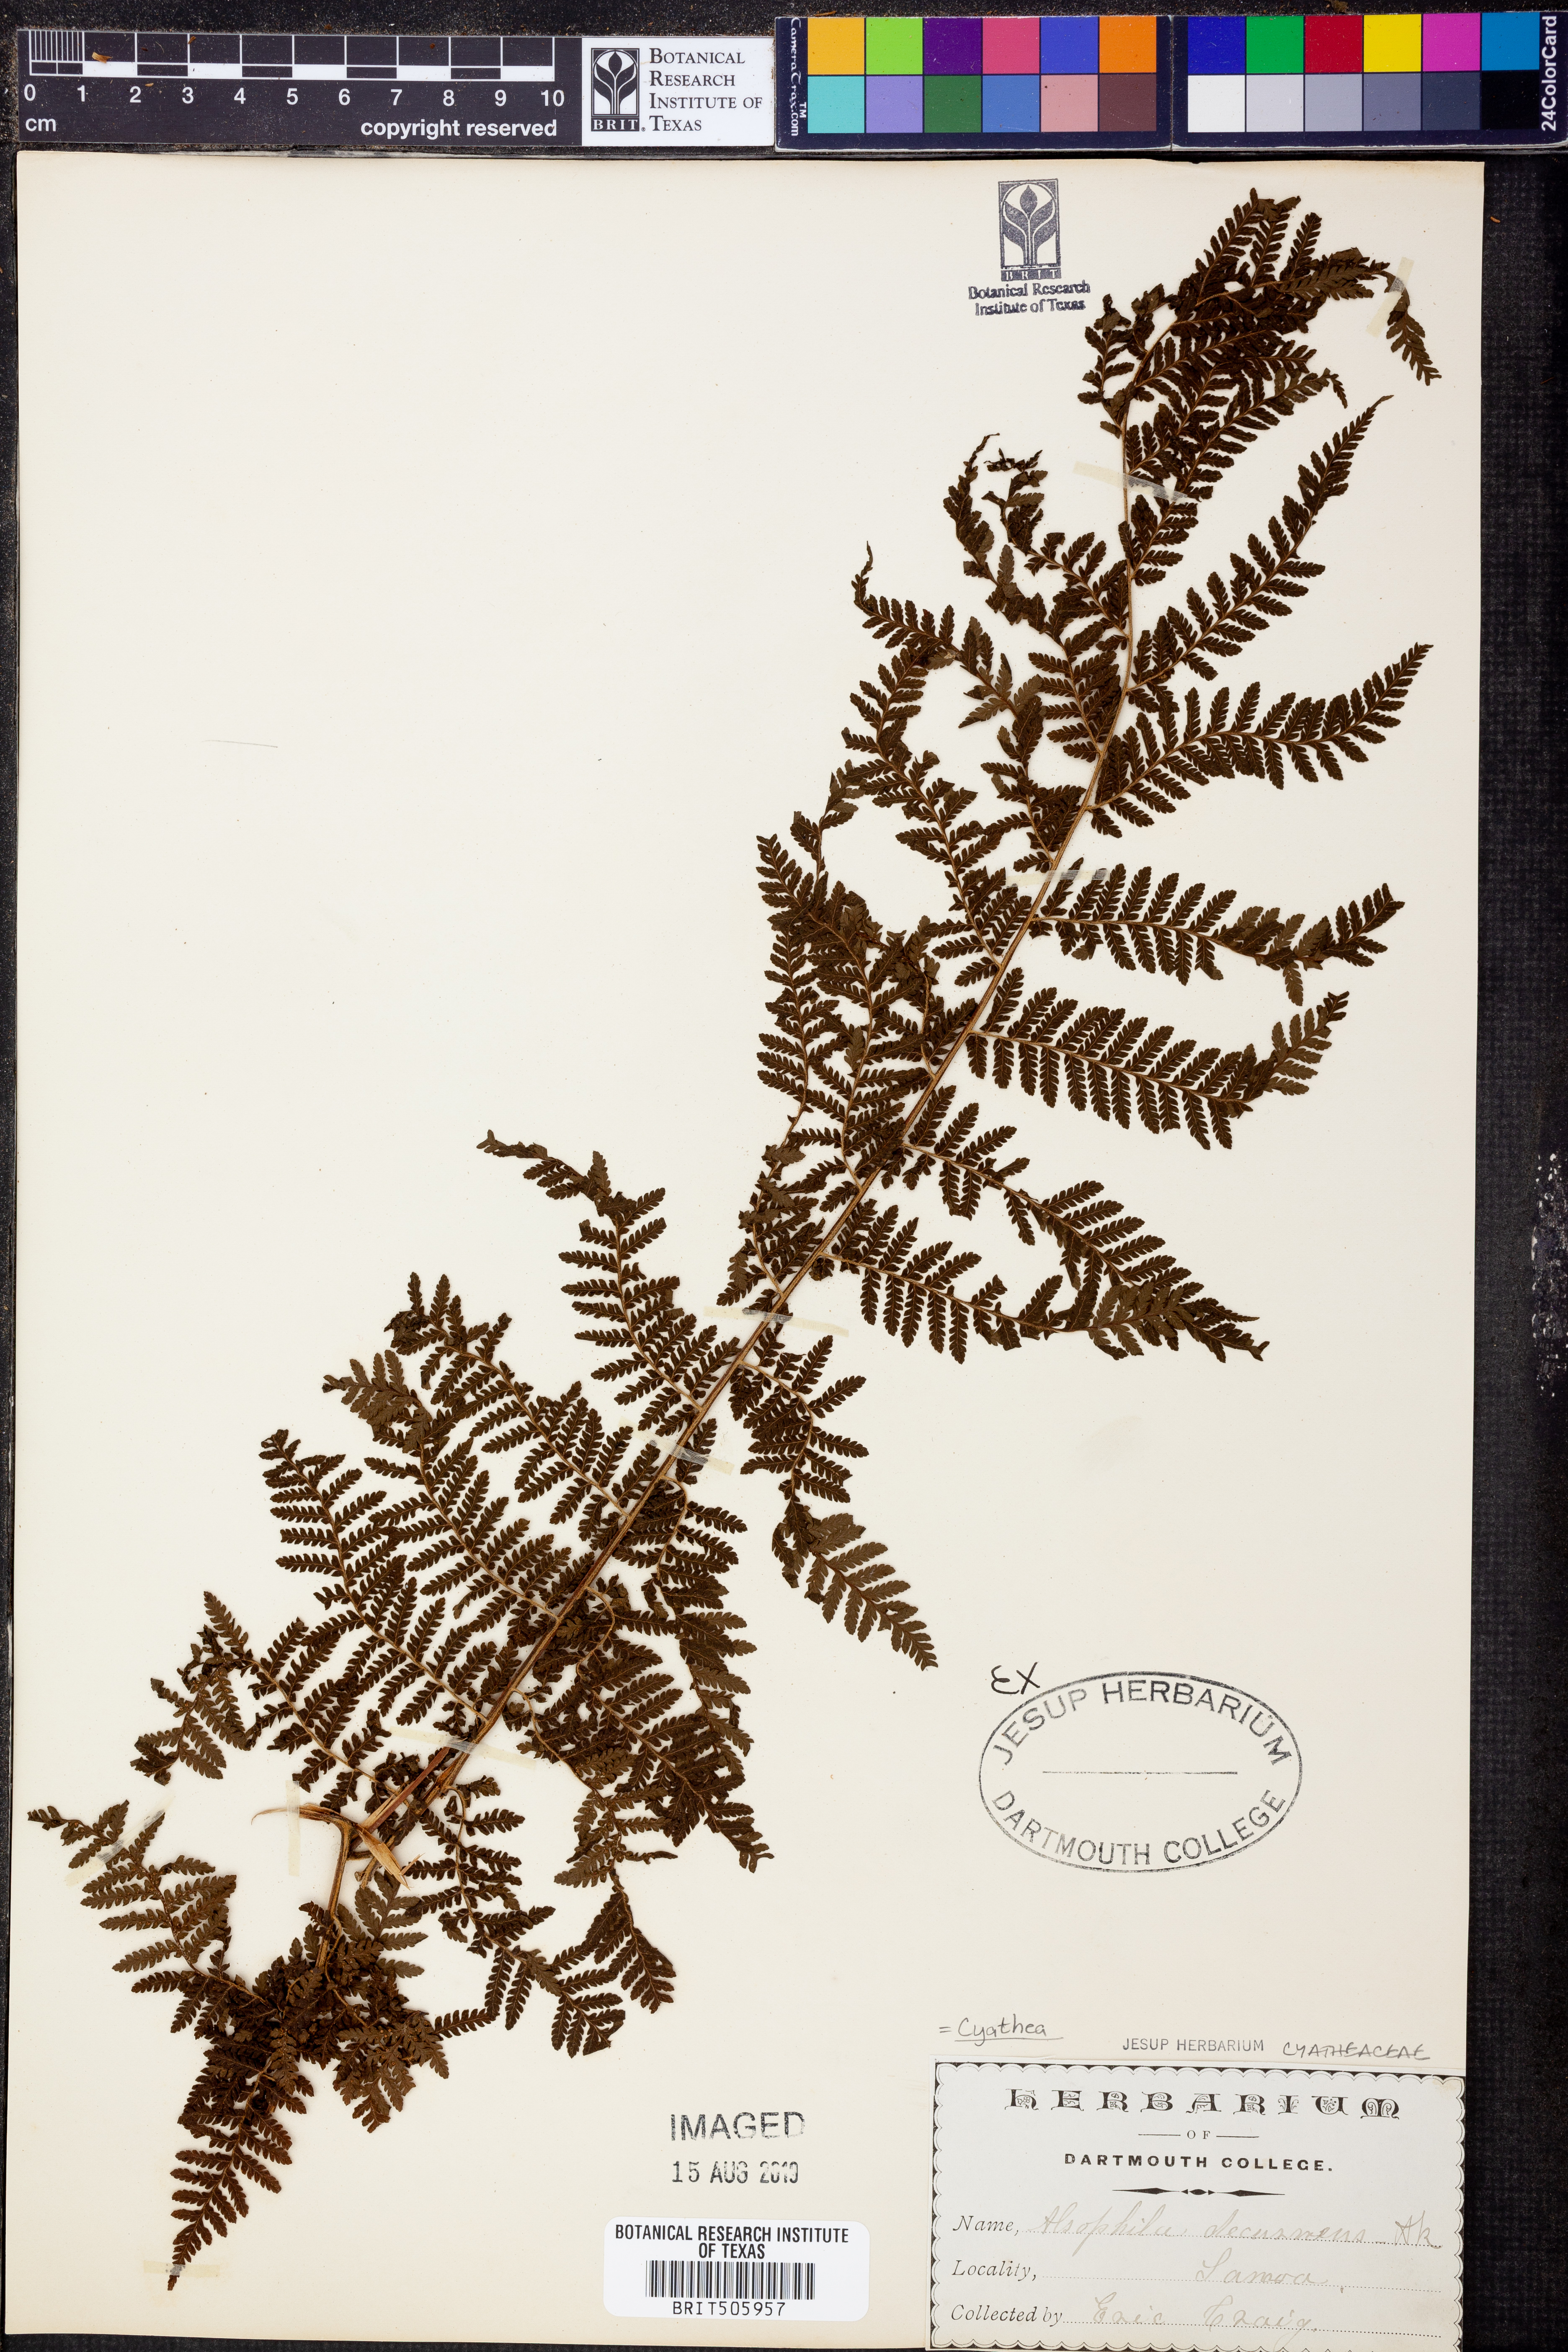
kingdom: Plantae
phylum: Tracheophyta
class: Polypodiopsida
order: Cyatheales
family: Cyatheaceae
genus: Cyathea
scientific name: Cyathea decurrens
